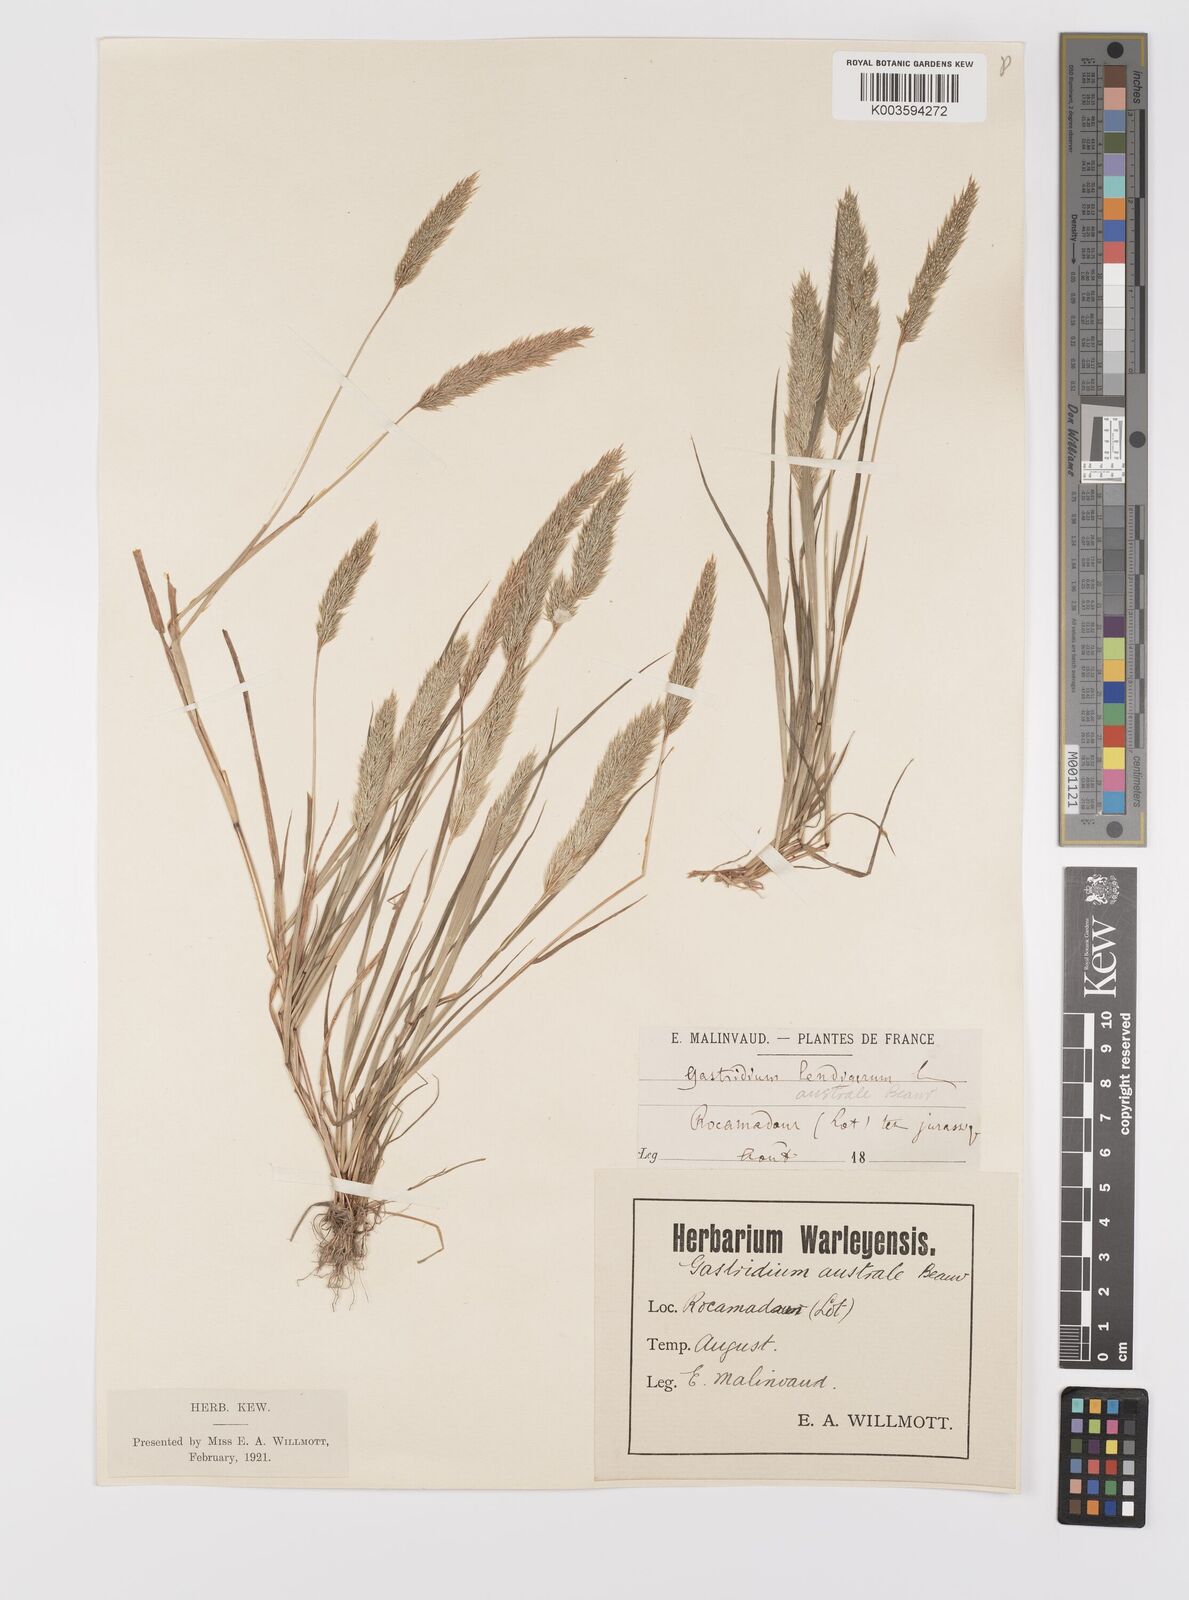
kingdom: Plantae
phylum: Tracheophyta
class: Liliopsida
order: Poales
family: Poaceae
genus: Gastridium
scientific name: Gastridium ventricosum
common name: Nit-grass
